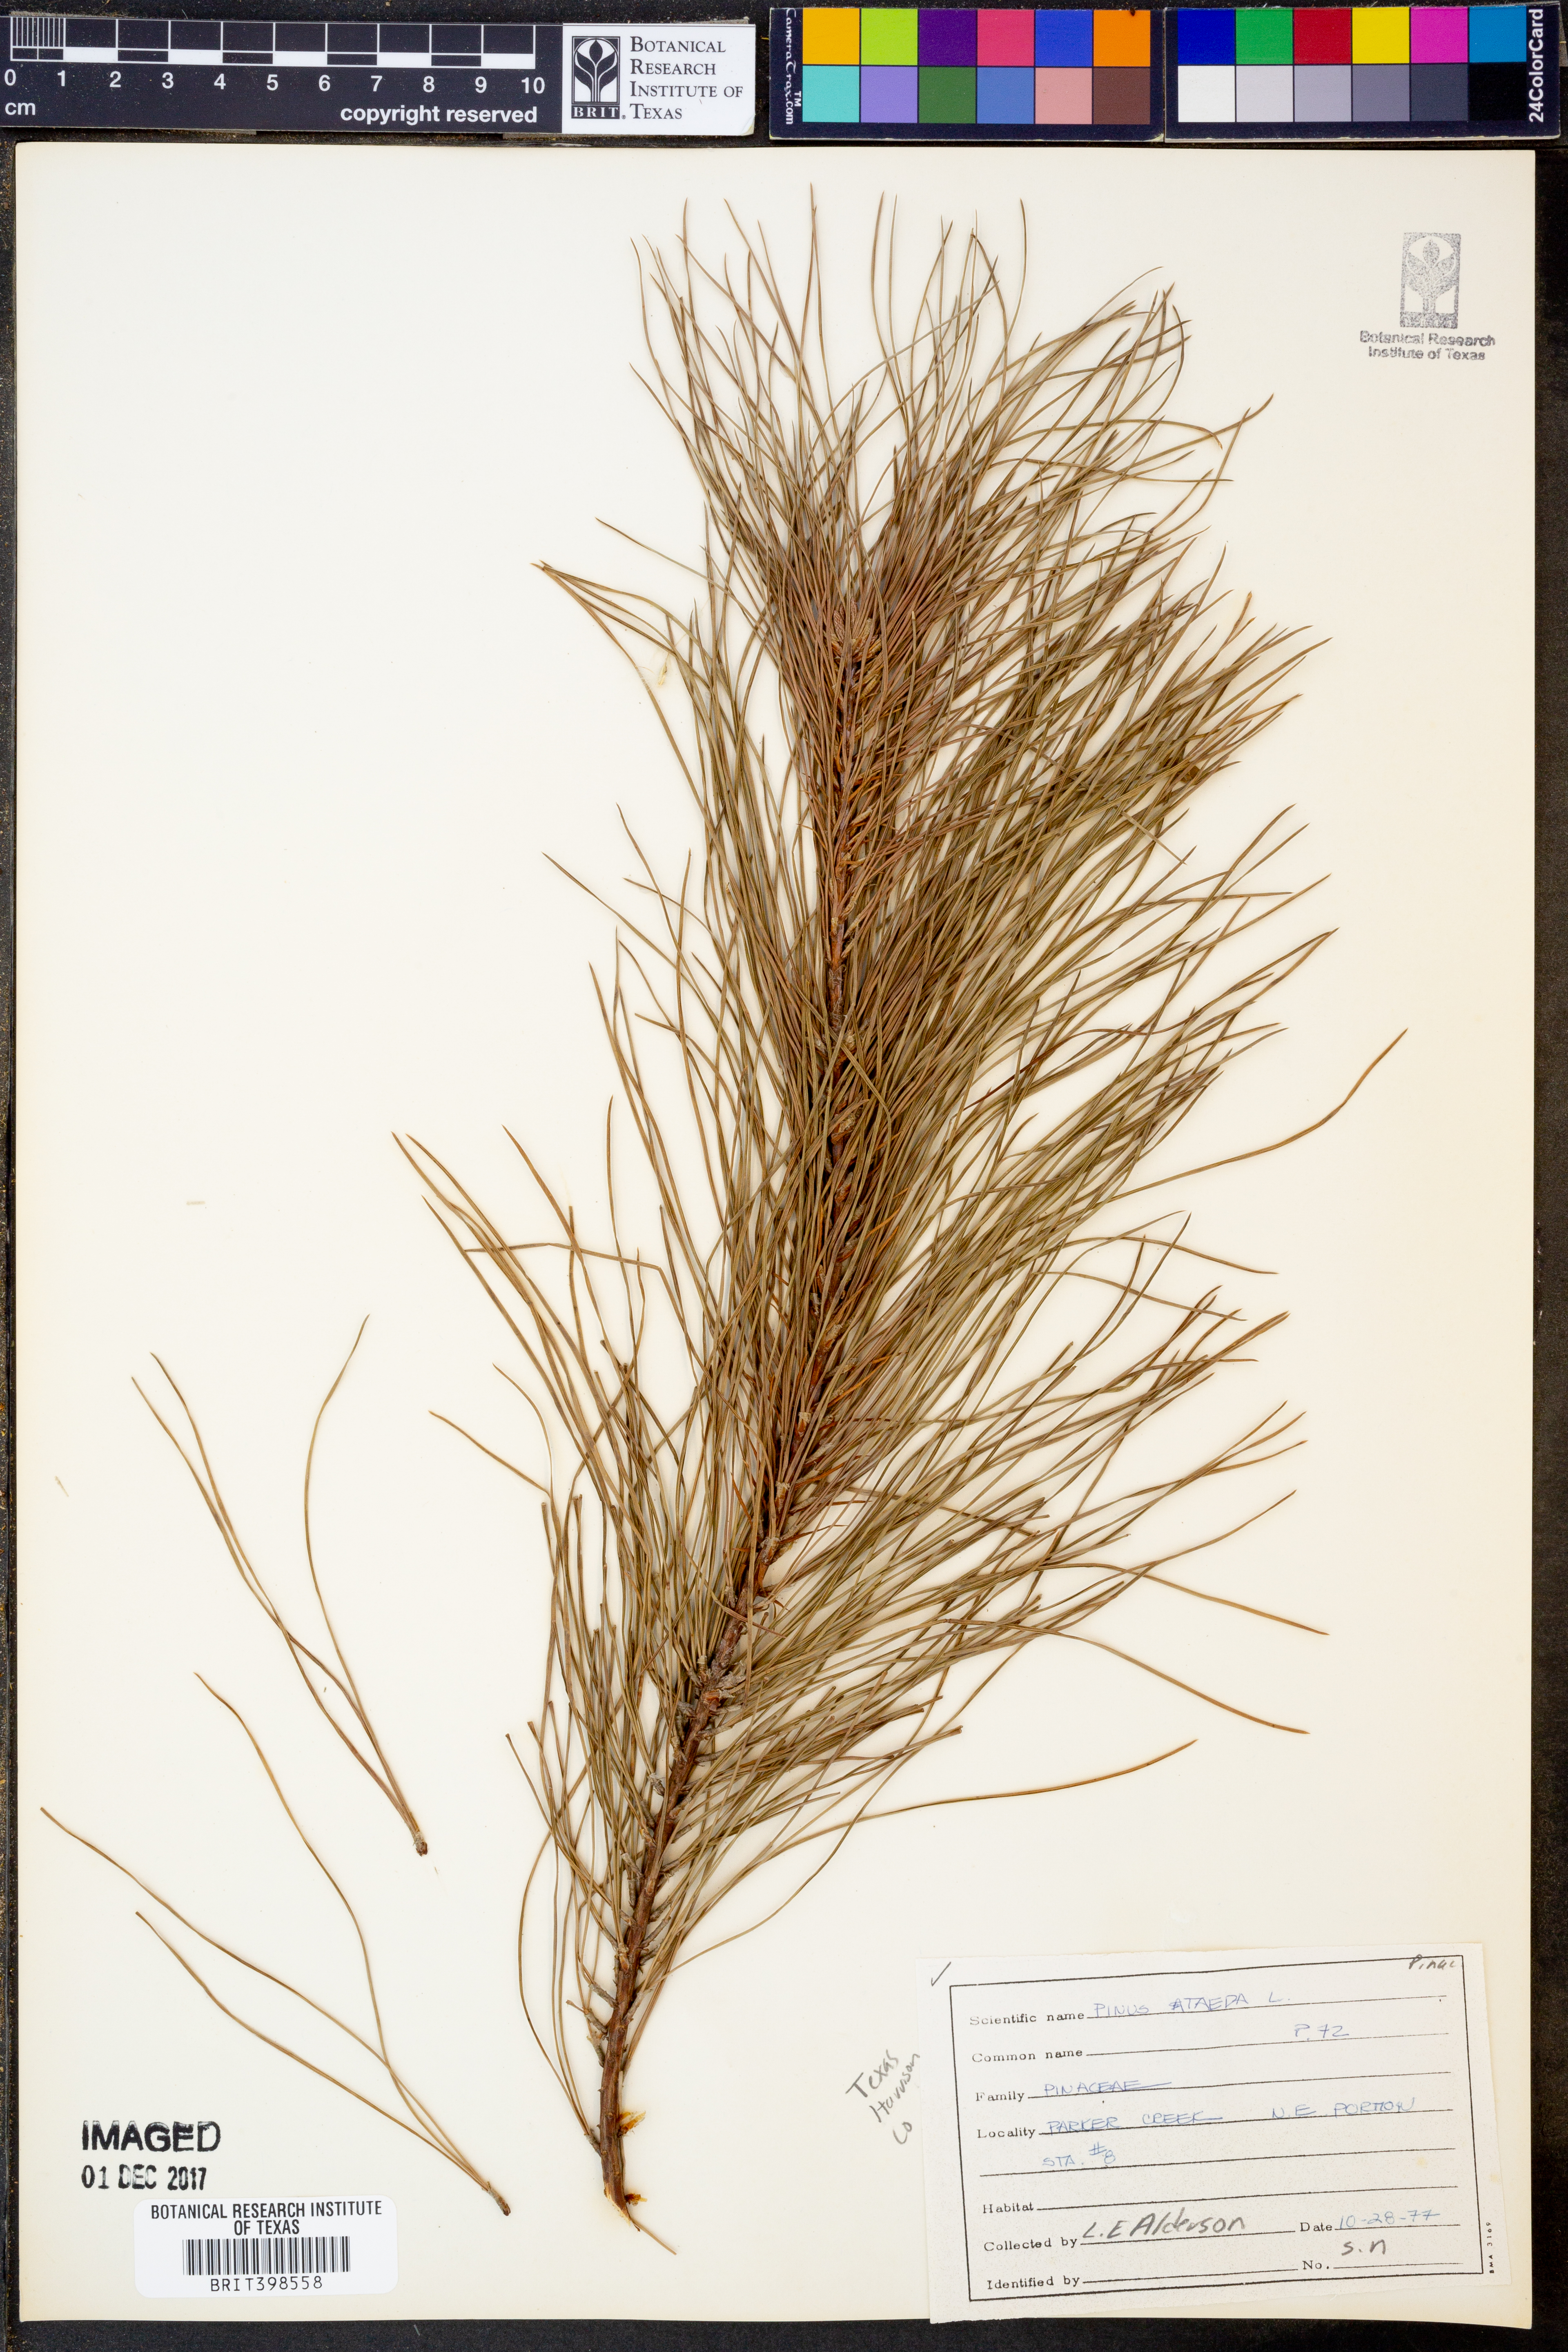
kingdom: Plantae
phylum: Tracheophyta
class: Pinopsida
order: Pinales
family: Pinaceae
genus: Pinus
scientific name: Pinus taeda
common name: Loblolly pine
